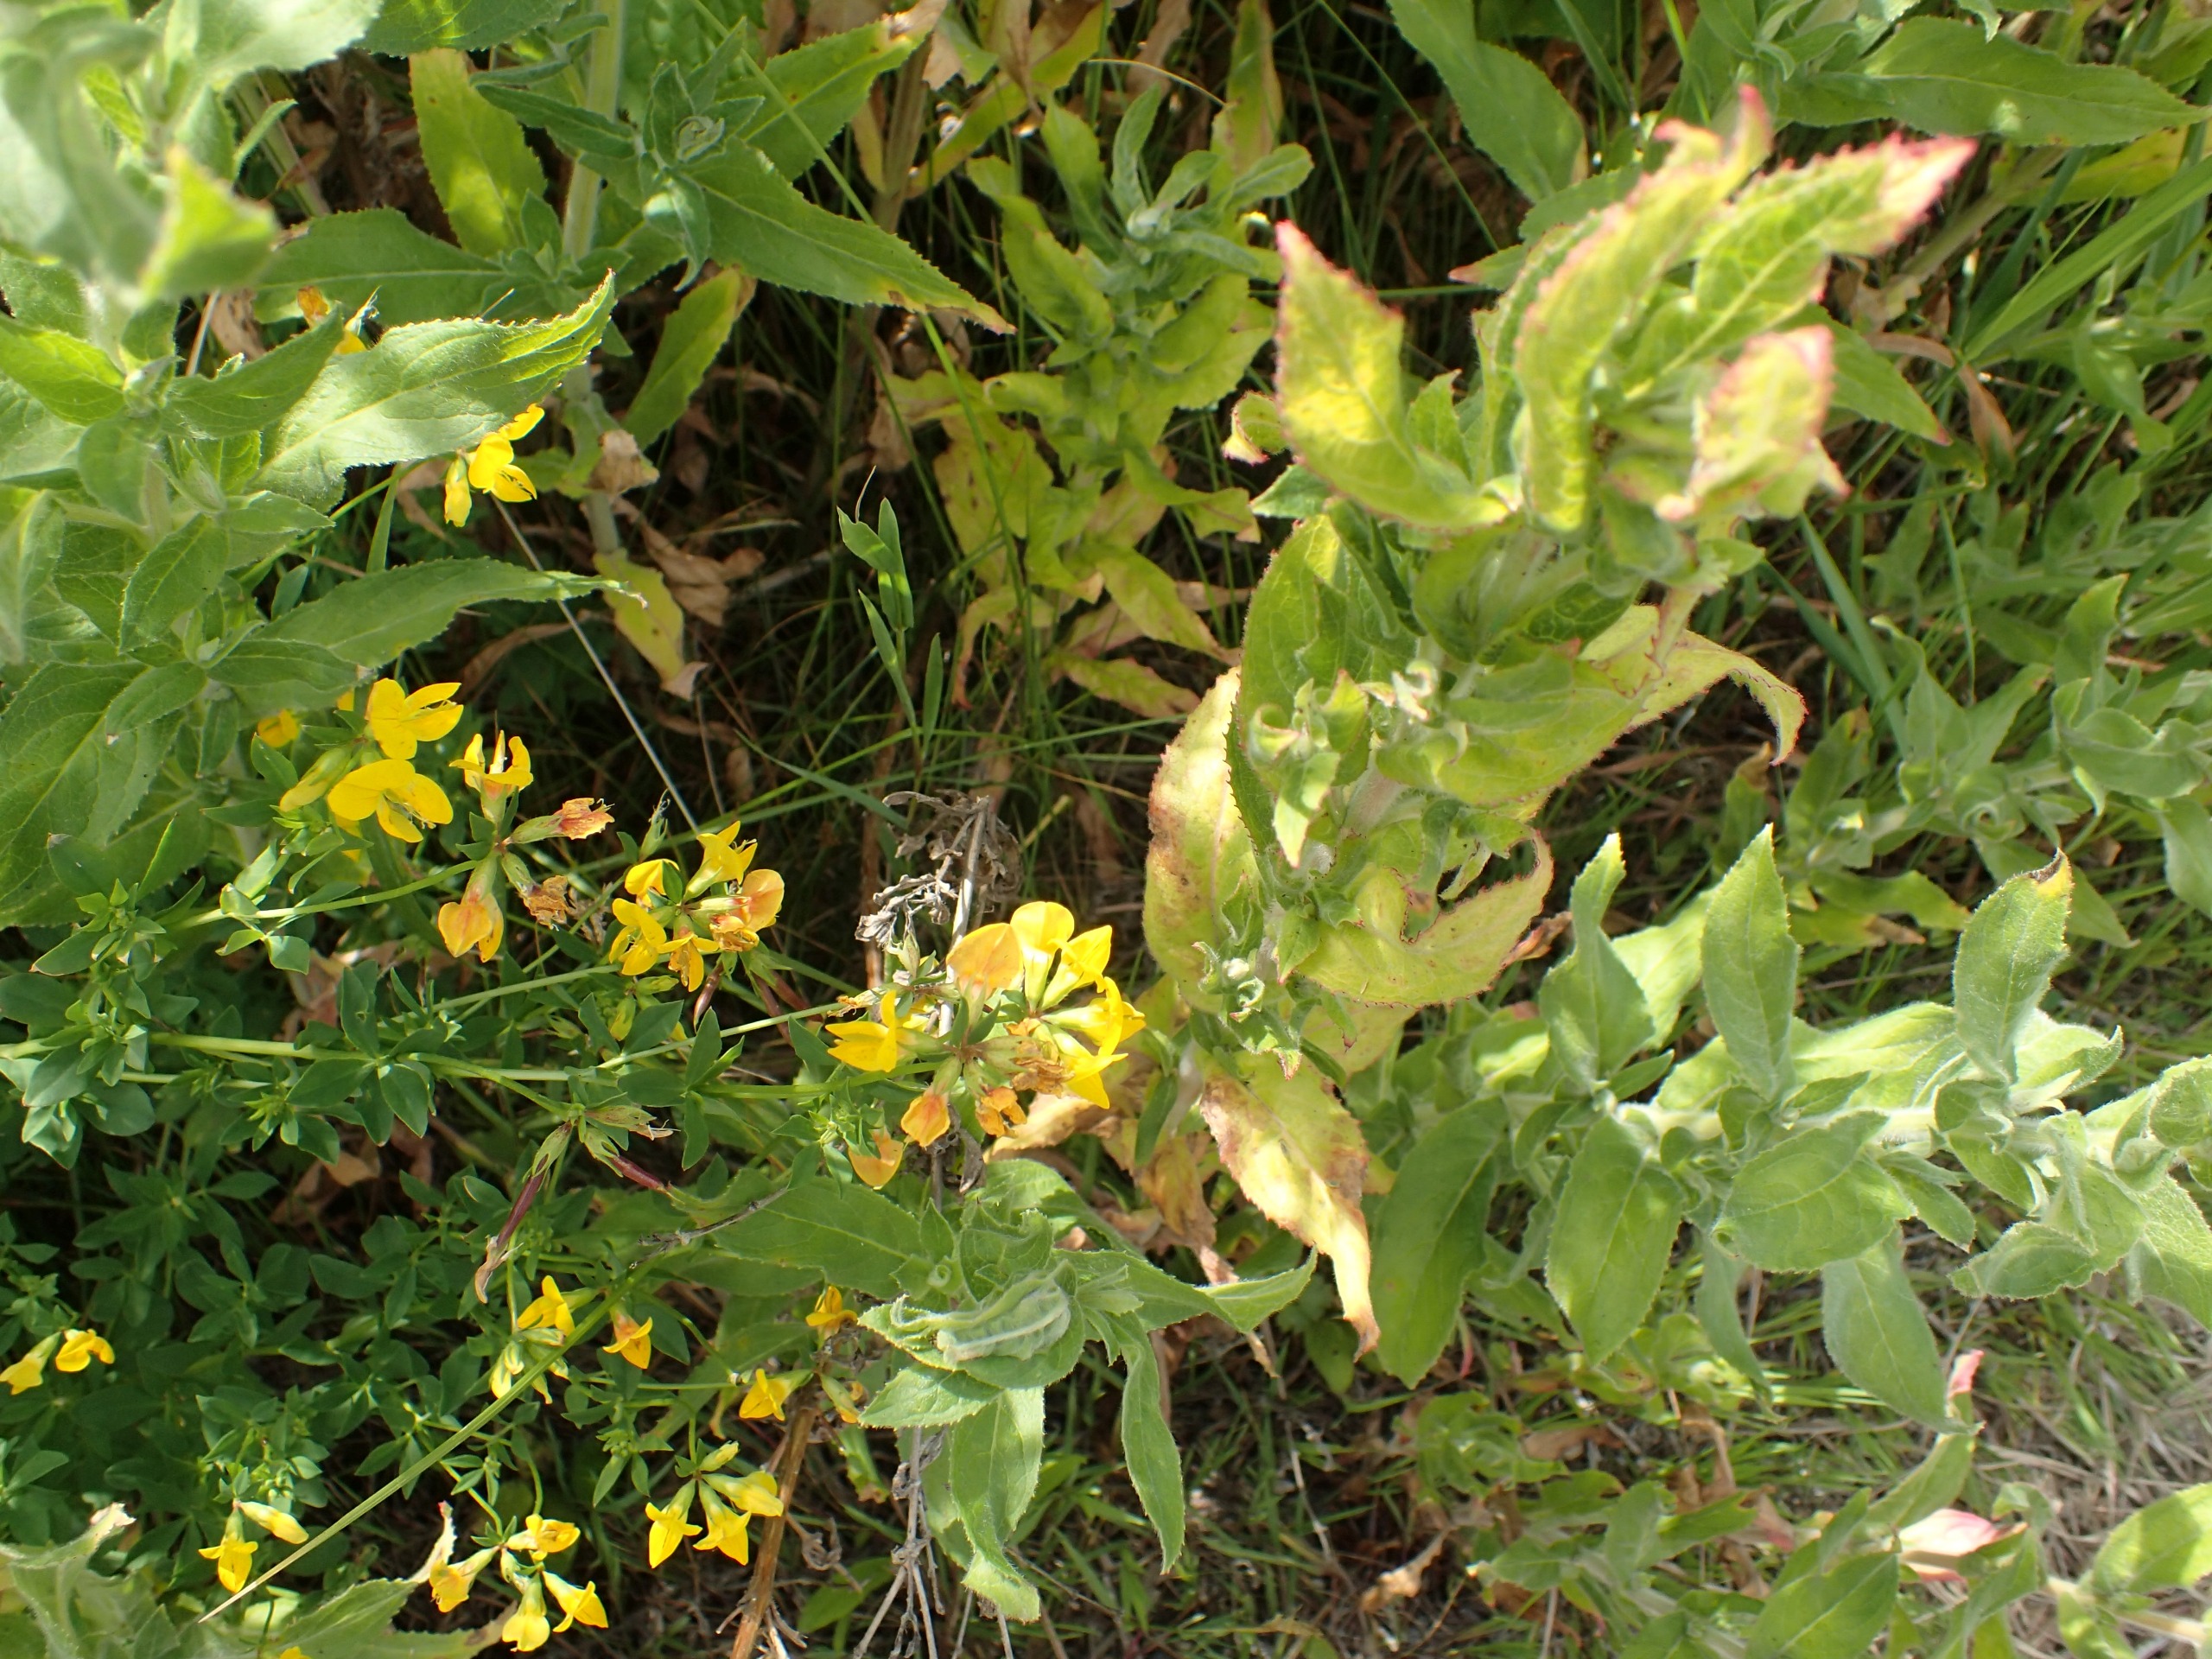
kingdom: Plantae
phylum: Tracheophyta
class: Magnoliopsida
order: Fabales
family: Fabaceae
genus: Lotus
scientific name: Lotus corniculatus
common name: Almindelig kællingetand
